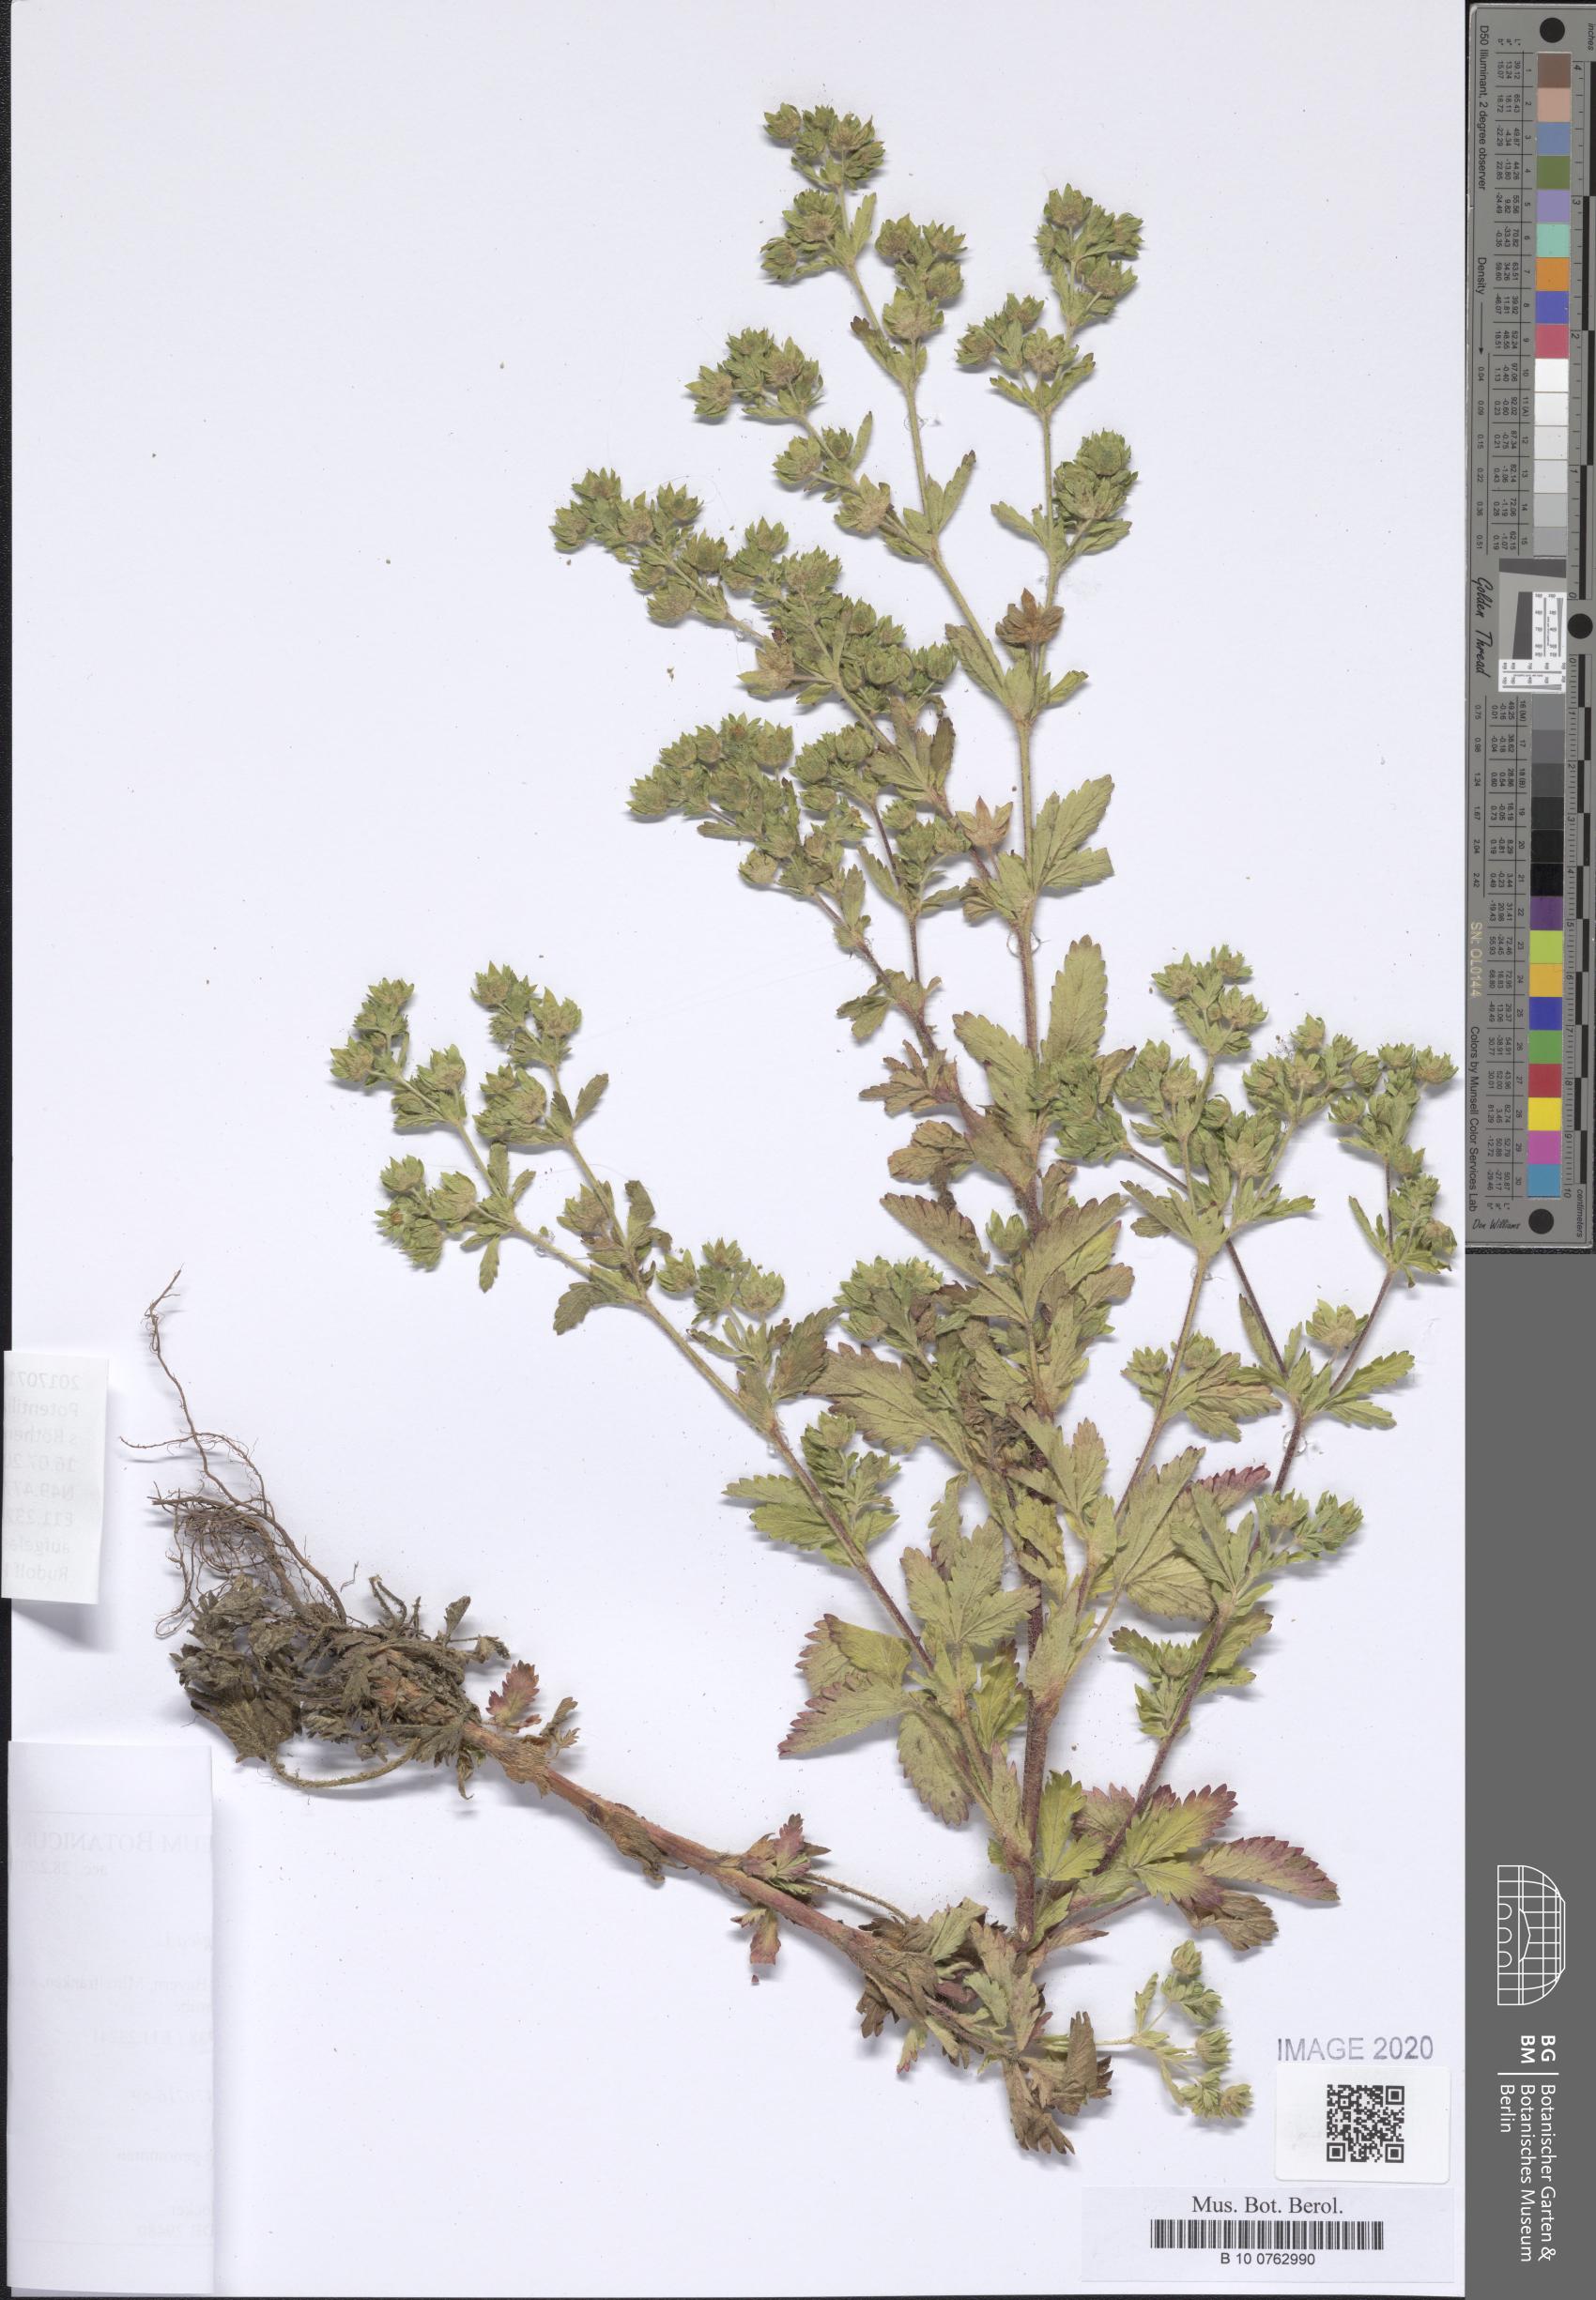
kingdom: Plantae
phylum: Tracheophyta
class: Magnoliopsida
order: Rosales
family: Rosaceae
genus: Potentilla
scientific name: Potentilla norvegica
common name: Ternate-leaved cinquefoil
